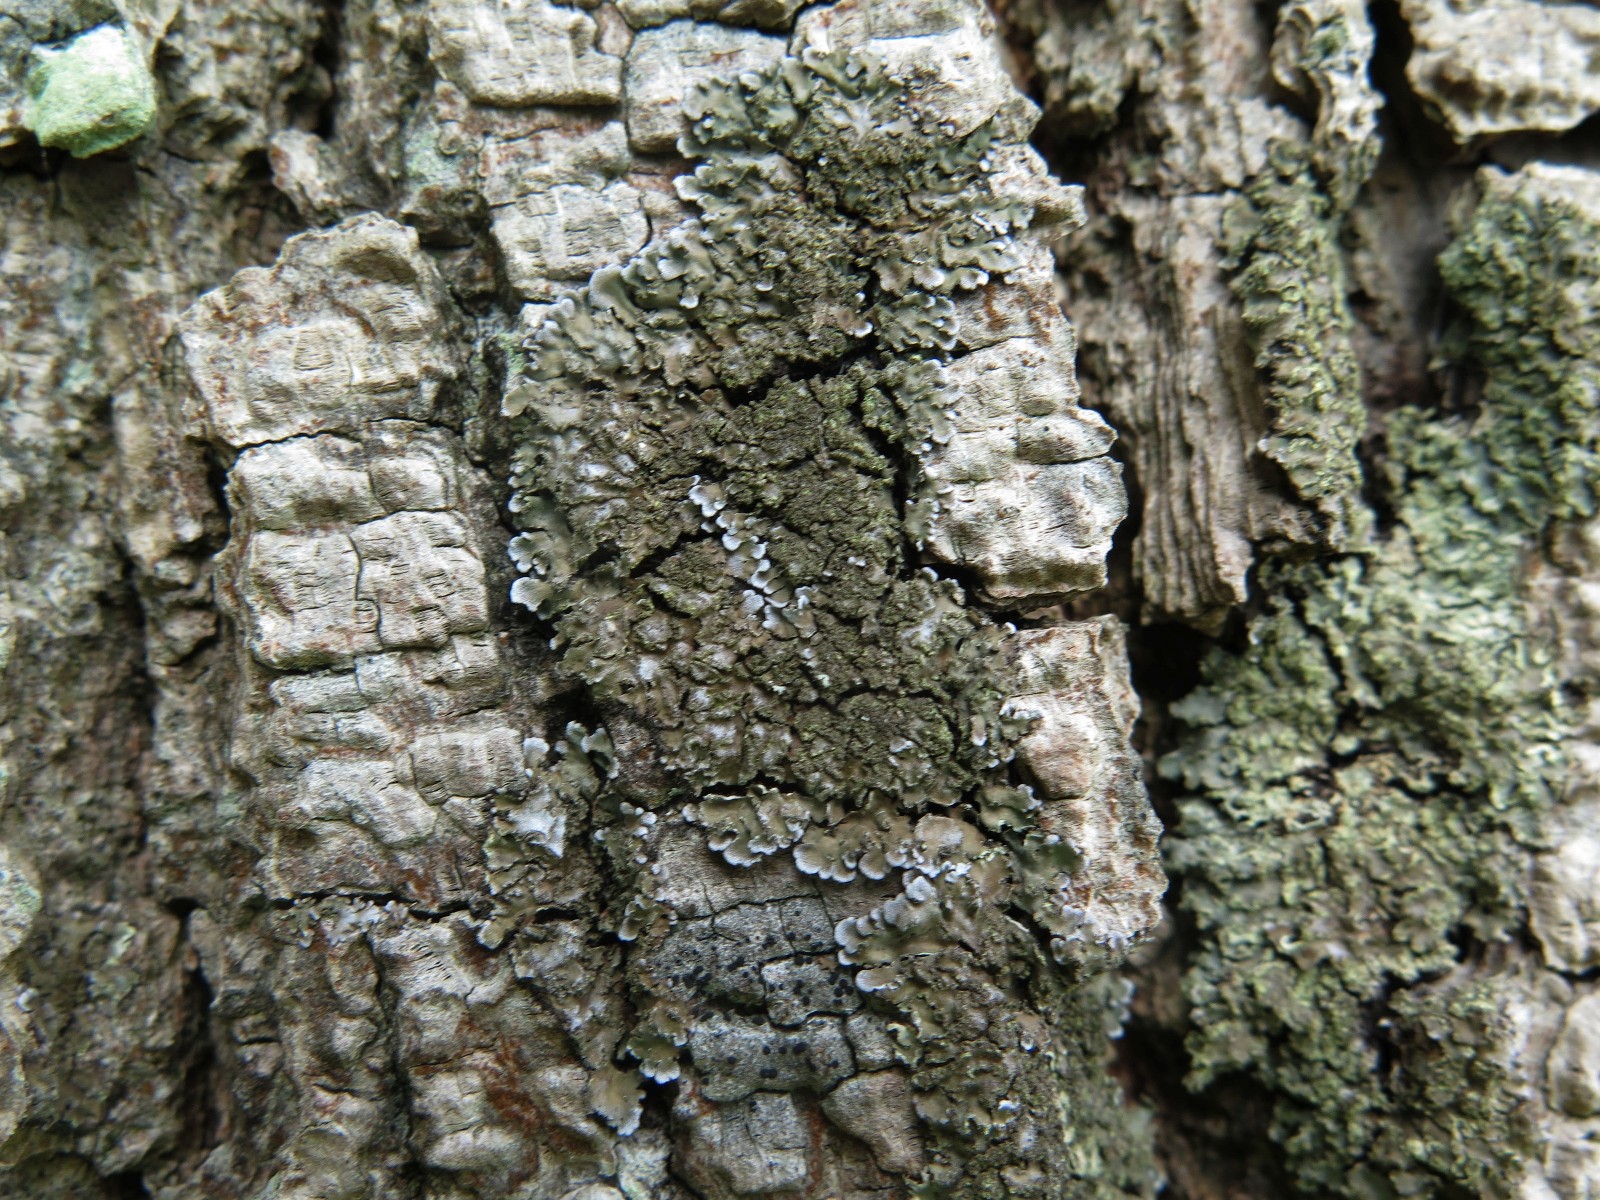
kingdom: Fungi
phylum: Ascomycota
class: Lecanoromycetes
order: Caliciales
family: Physciaceae
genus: Physconia
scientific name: Physconia enteroxantha
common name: grynet dugrosetlav
